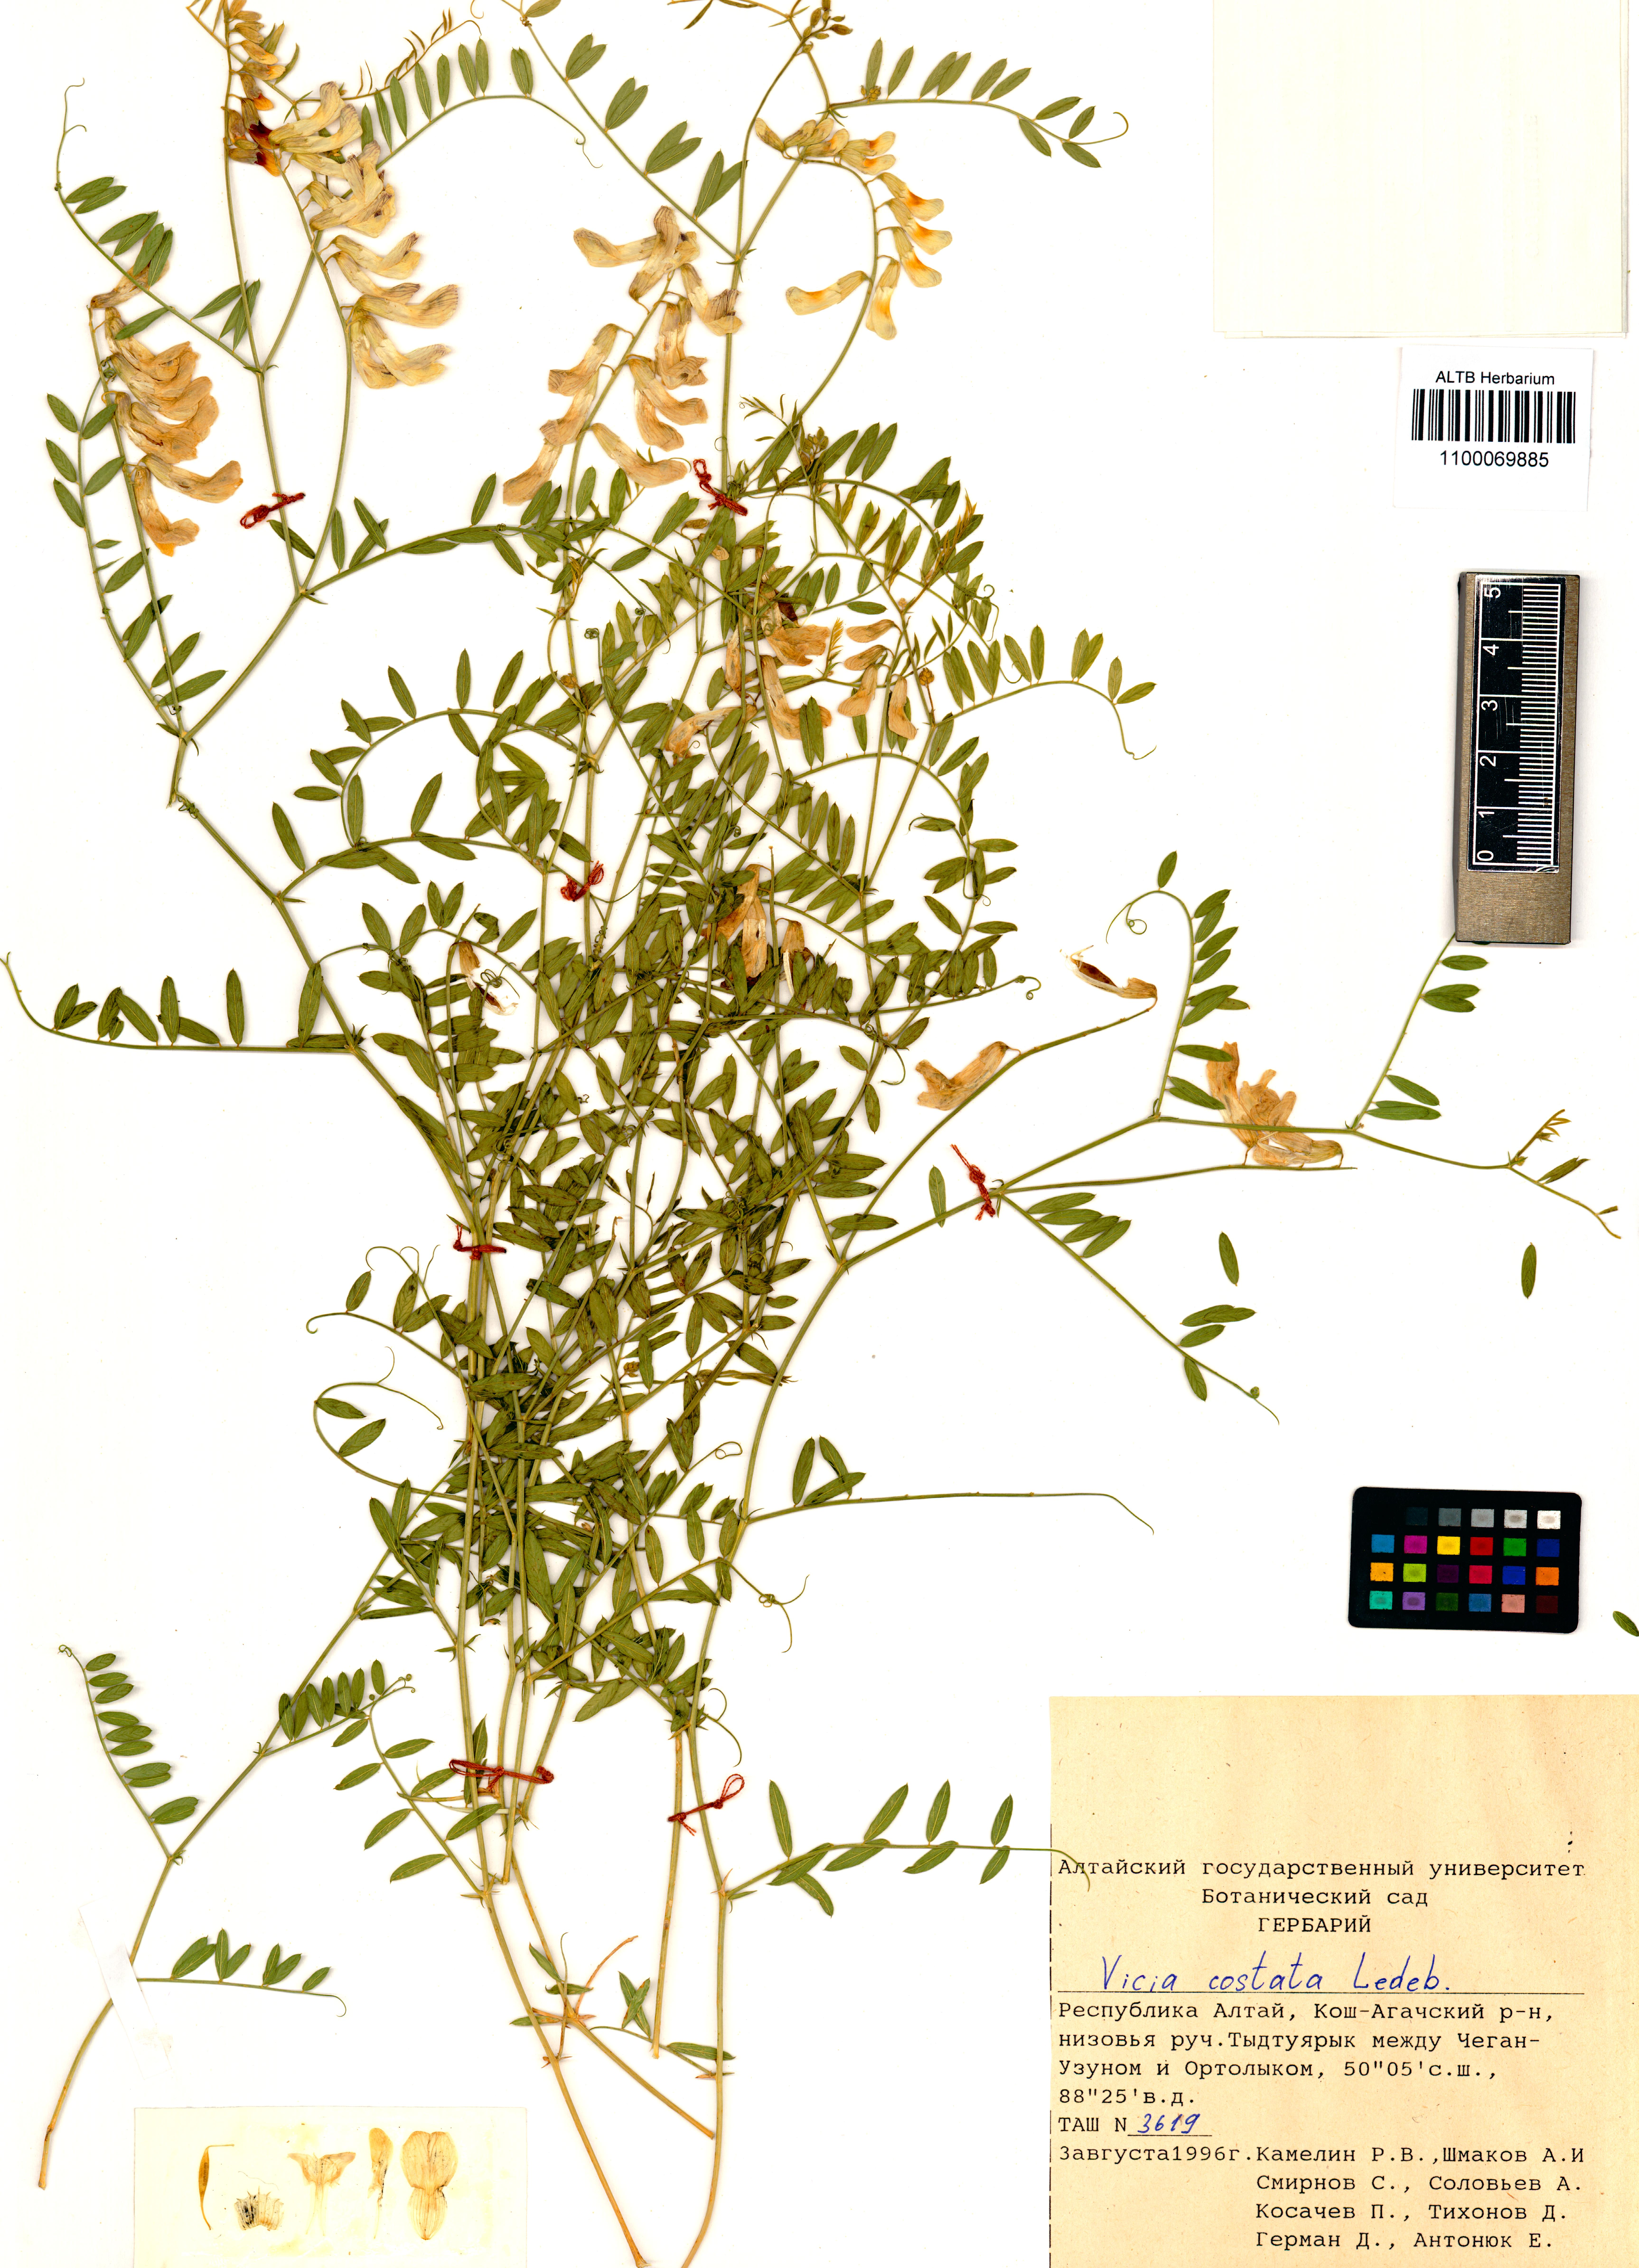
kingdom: Plantae
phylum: Tracheophyta
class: Magnoliopsida
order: Fabales
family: Fabaceae
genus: Vicia
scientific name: Vicia costata
